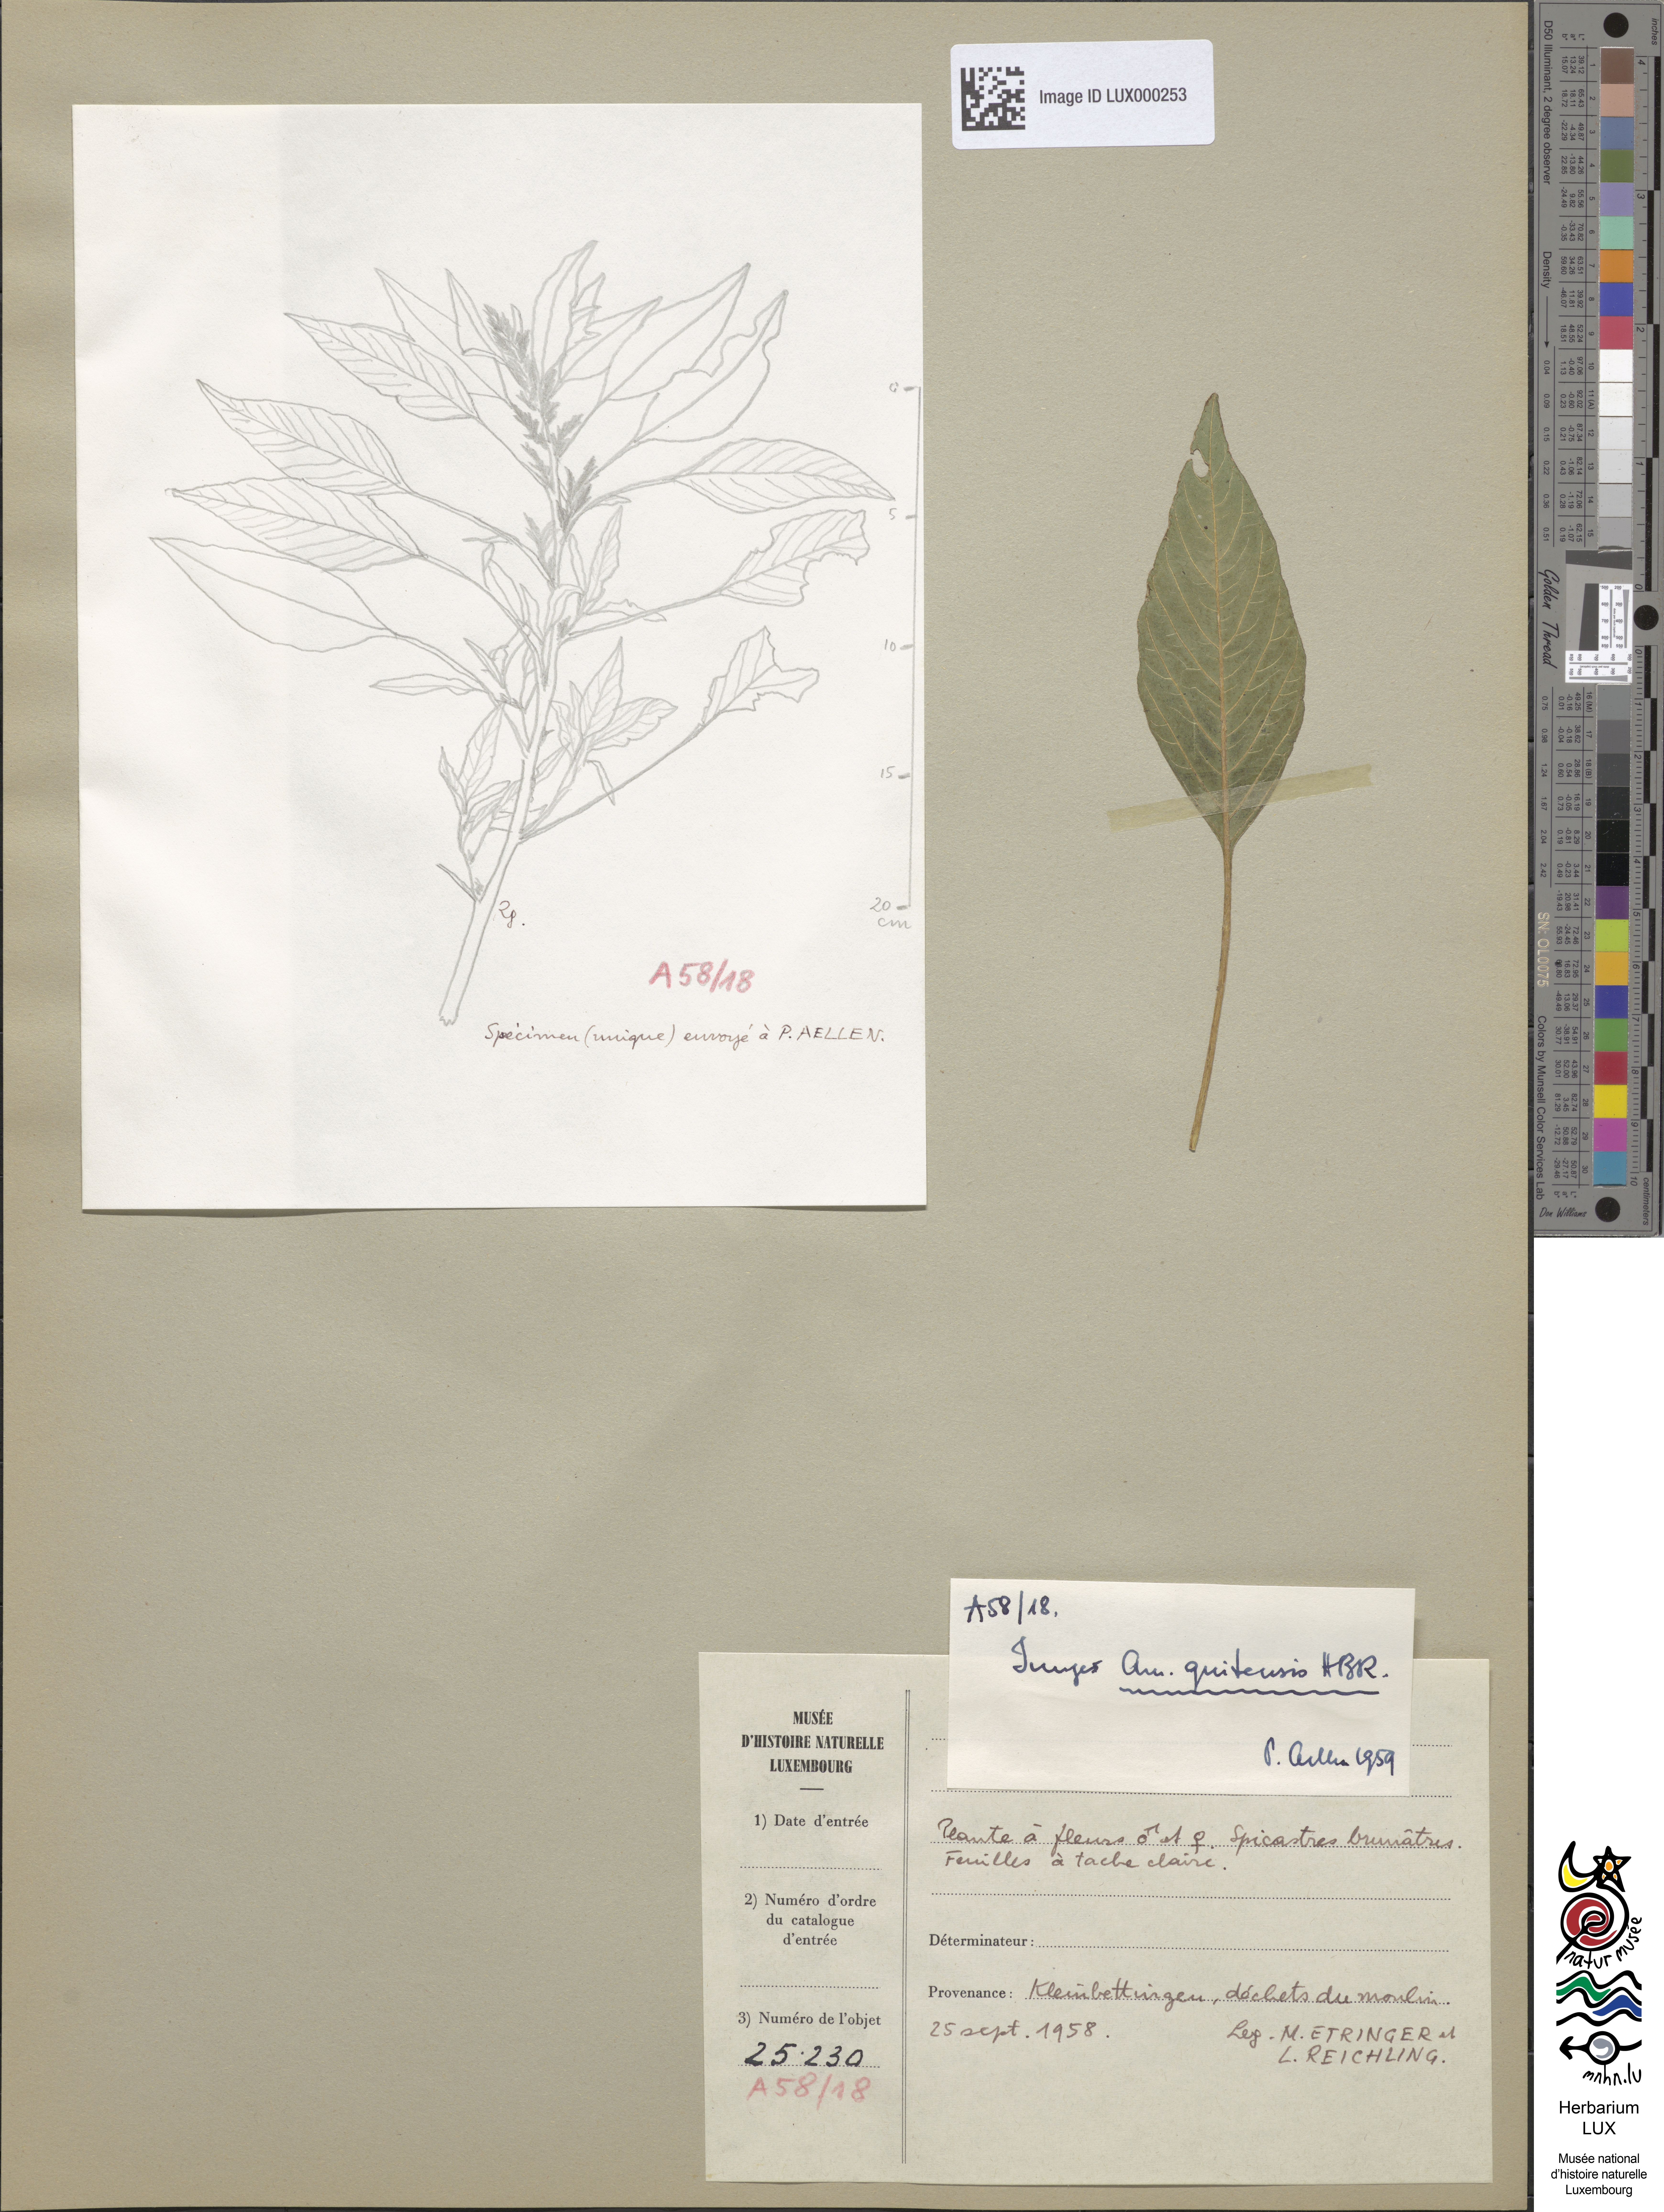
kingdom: Plantae
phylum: Tracheophyta
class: Magnoliopsida
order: Caryophyllales
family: Amaranthaceae
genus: Amaranthus
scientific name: Amaranthus quitensis
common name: Mucronate amaranth
